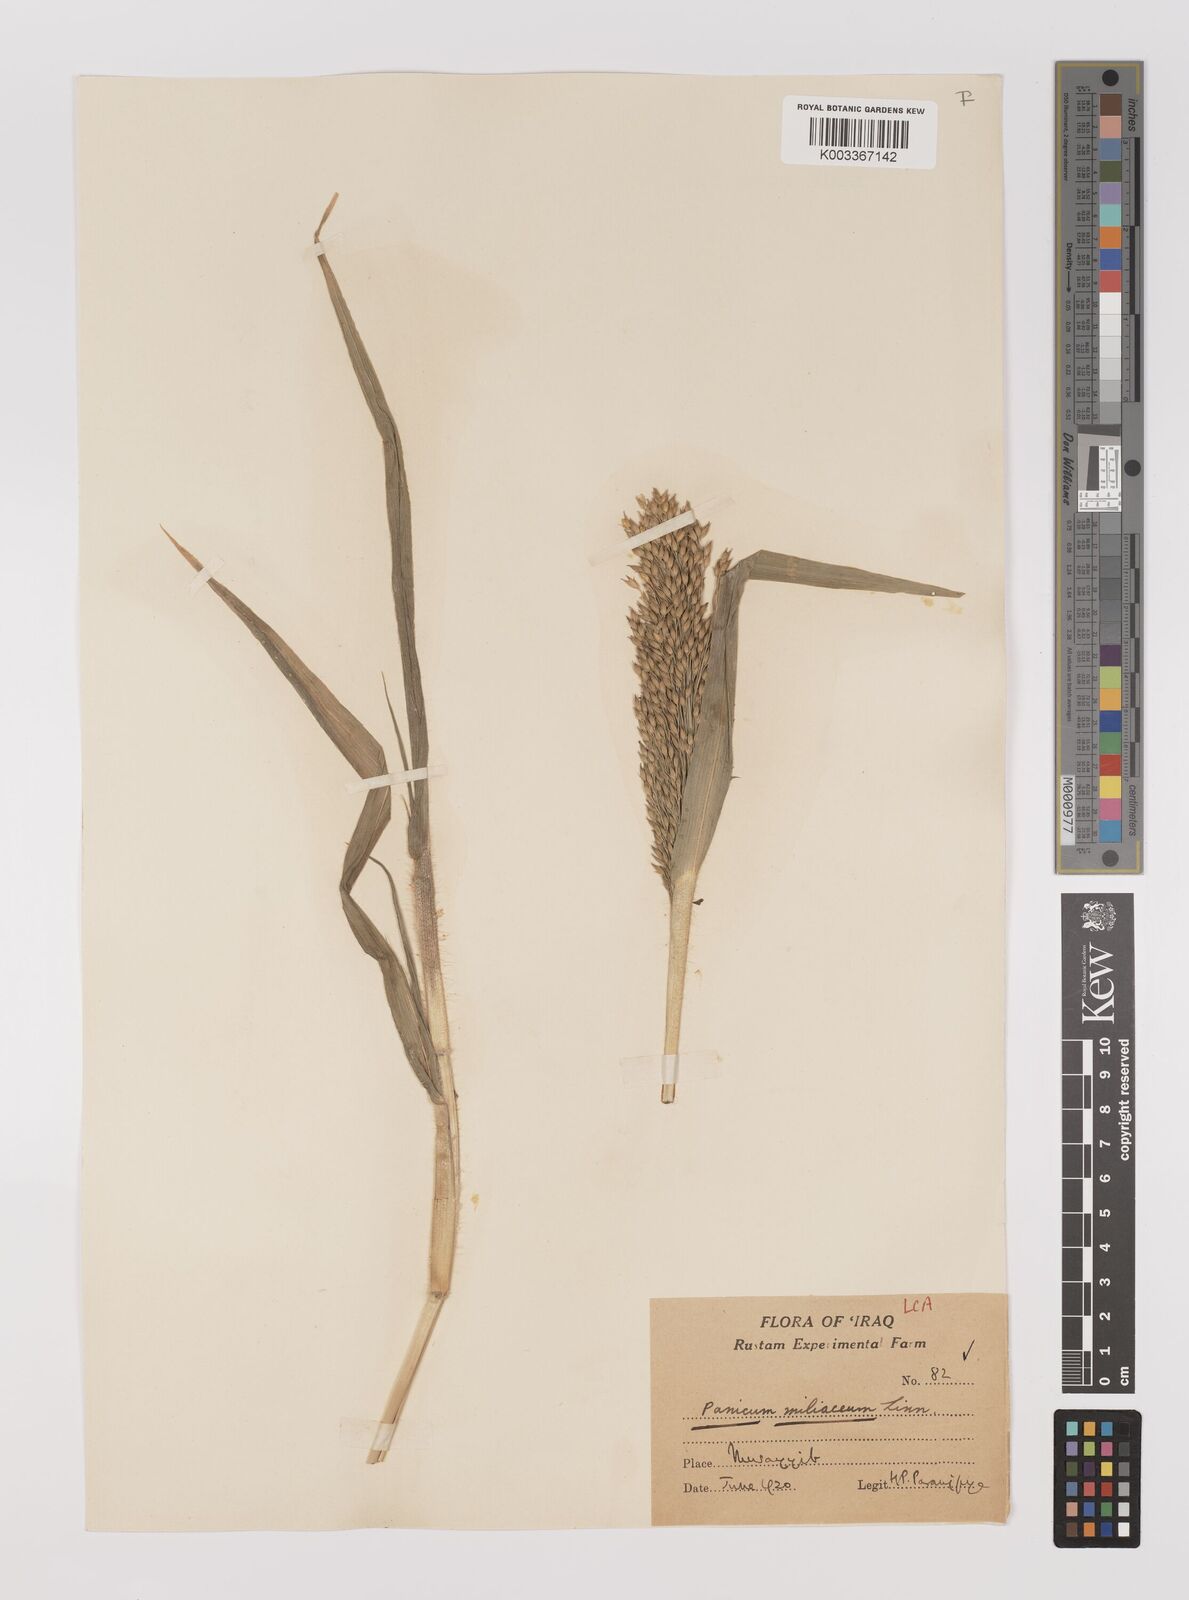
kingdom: Plantae
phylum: Tracheophyta
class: Liliopsida
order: Poales
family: Poaceae
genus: Panicum
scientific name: Panicum miliaceum
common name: Common millet
